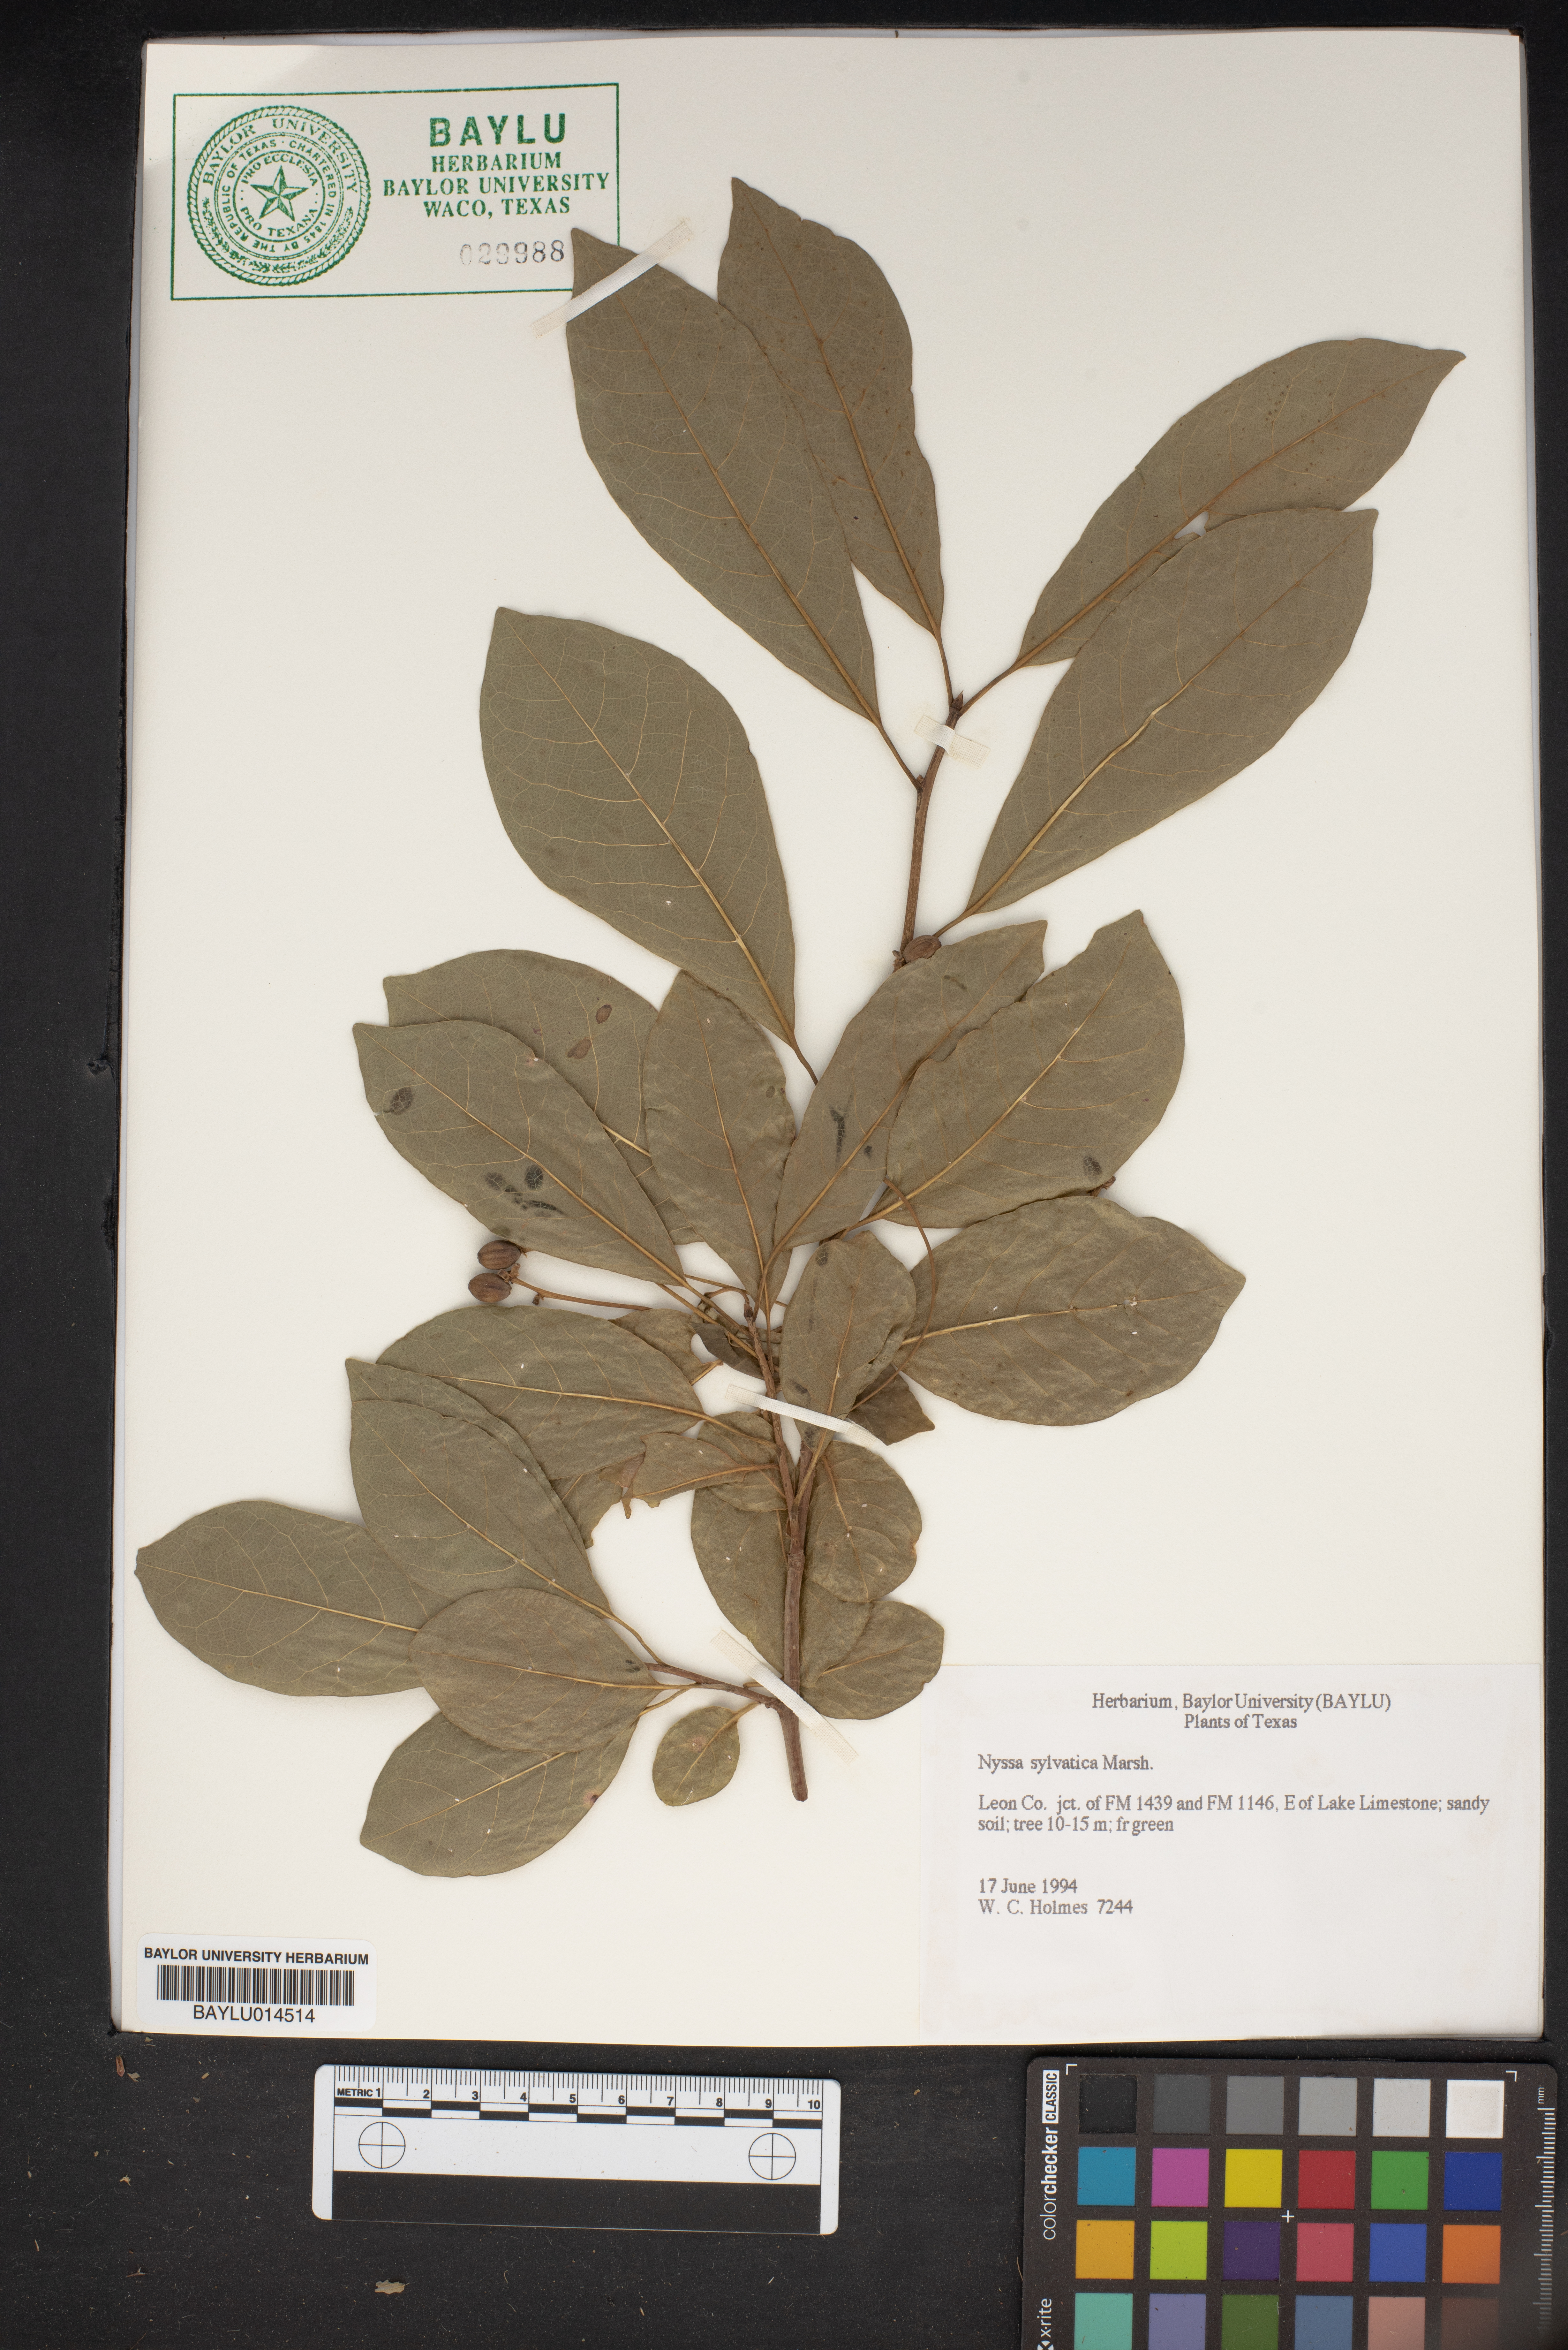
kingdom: Plantae
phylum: Tracheophyta
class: Magnoliopsida
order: Cornales
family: Nyssaceae
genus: Nyssa
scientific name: Nyssa sylvatica
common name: Black tupelo
